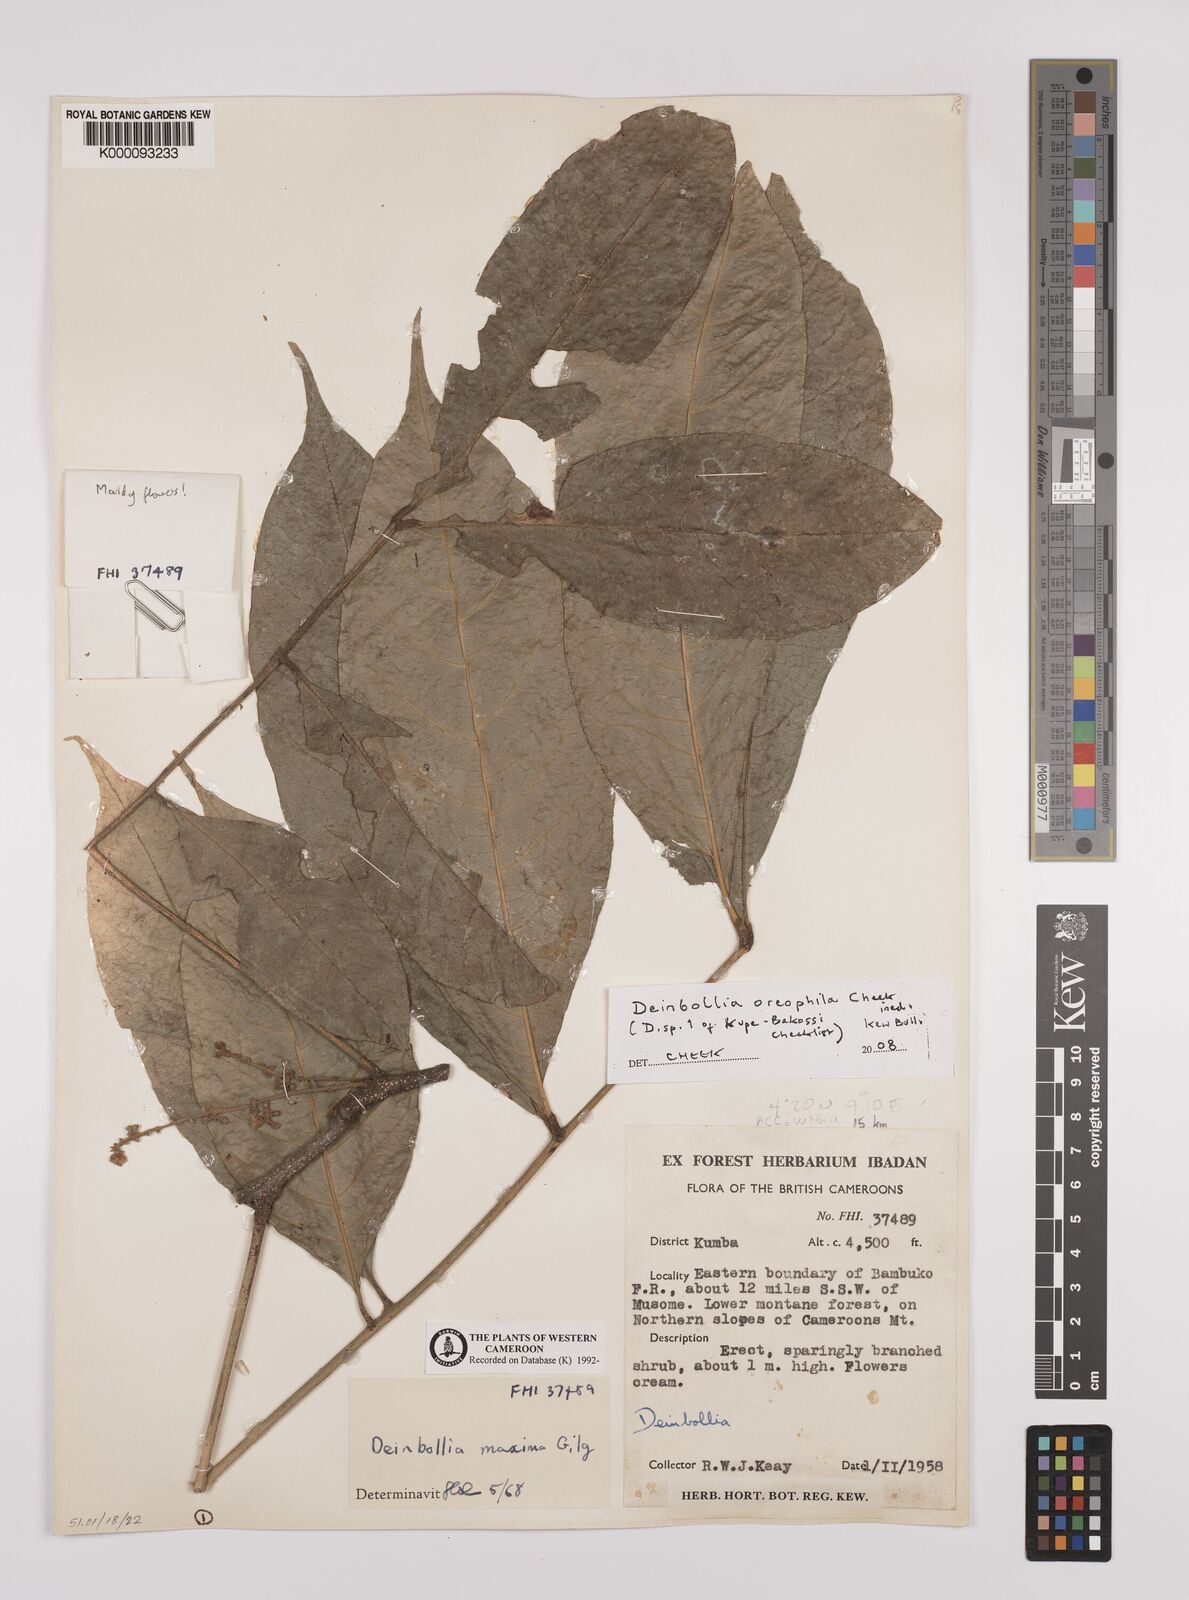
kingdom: Plantae
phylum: Tracheophyta
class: Magnoliopsida
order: Sapindales
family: Sapindaceae
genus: Deinbollia
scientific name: Deinbollia oreophila
